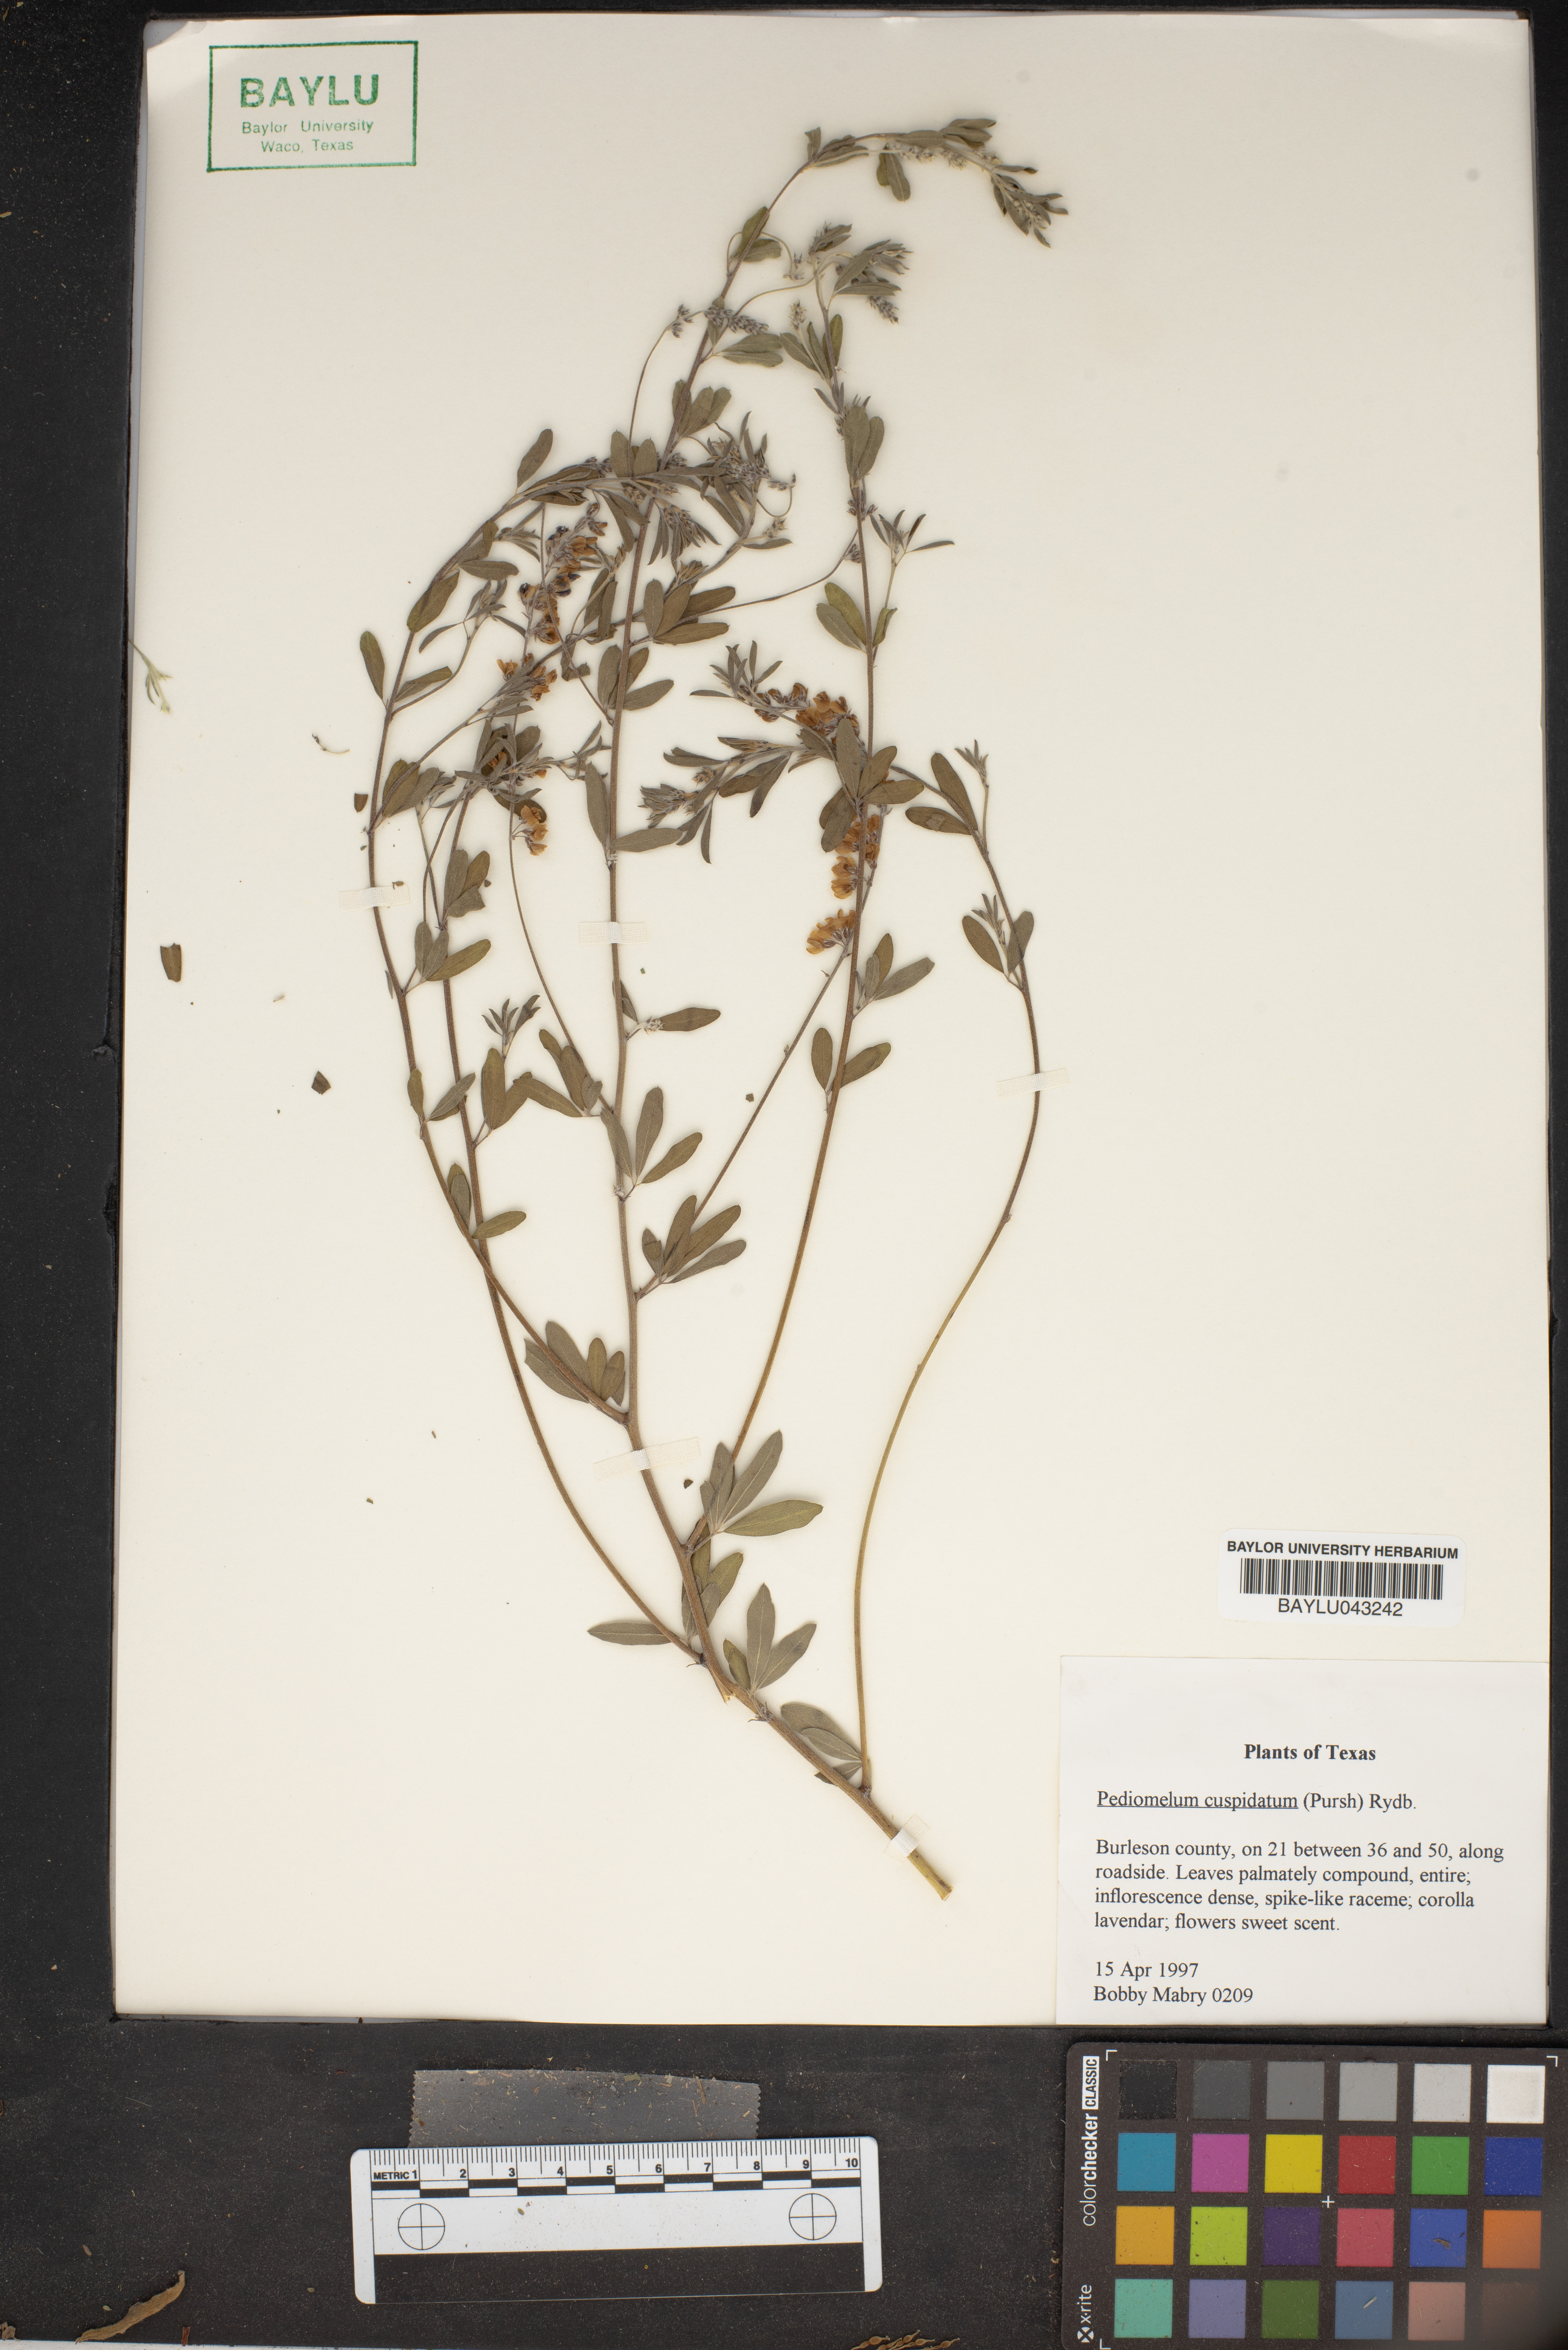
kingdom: Plantae
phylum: Tracheophyta
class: Magnoliopsida
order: Fabales
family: Fabaceae
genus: Pediomelum
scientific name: Pediomelum cuspidatum
